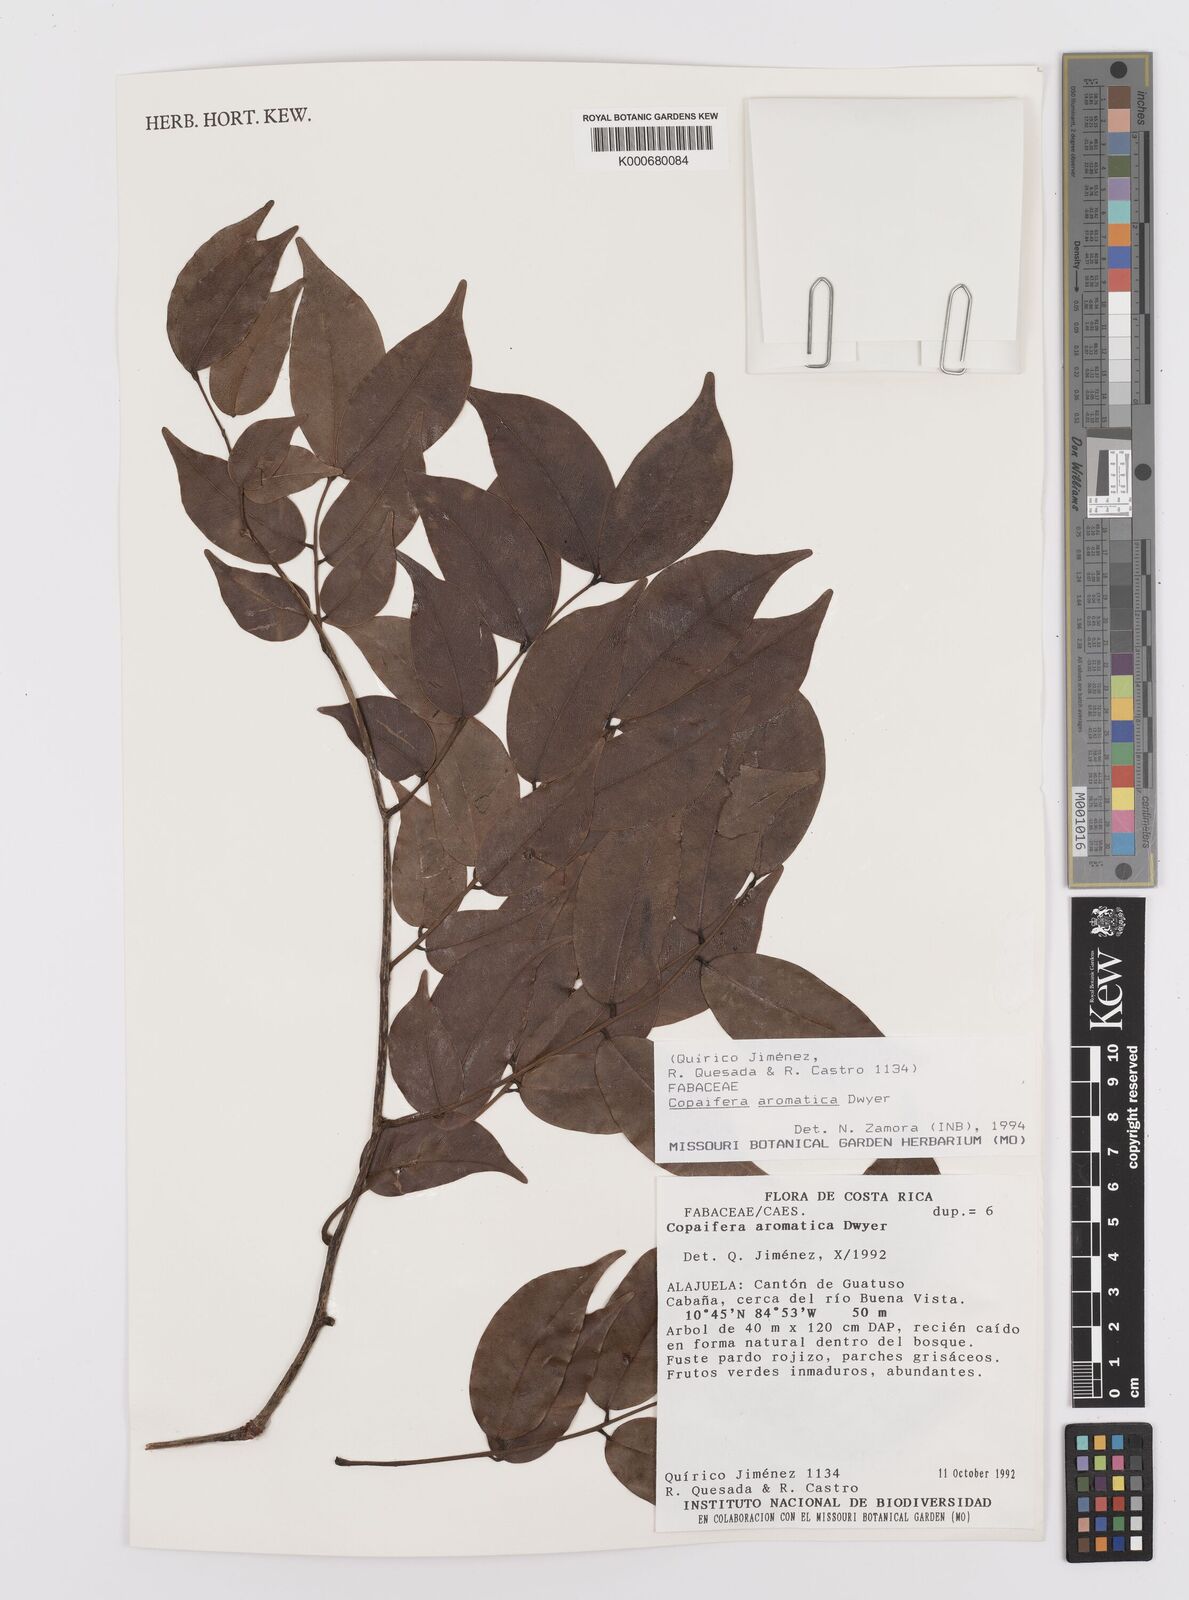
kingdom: Plantae
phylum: Tracheophyta
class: Magnoliopsida
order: Fabales
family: Fabaceae
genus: Copaifera
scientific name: Copaifera aromatica
